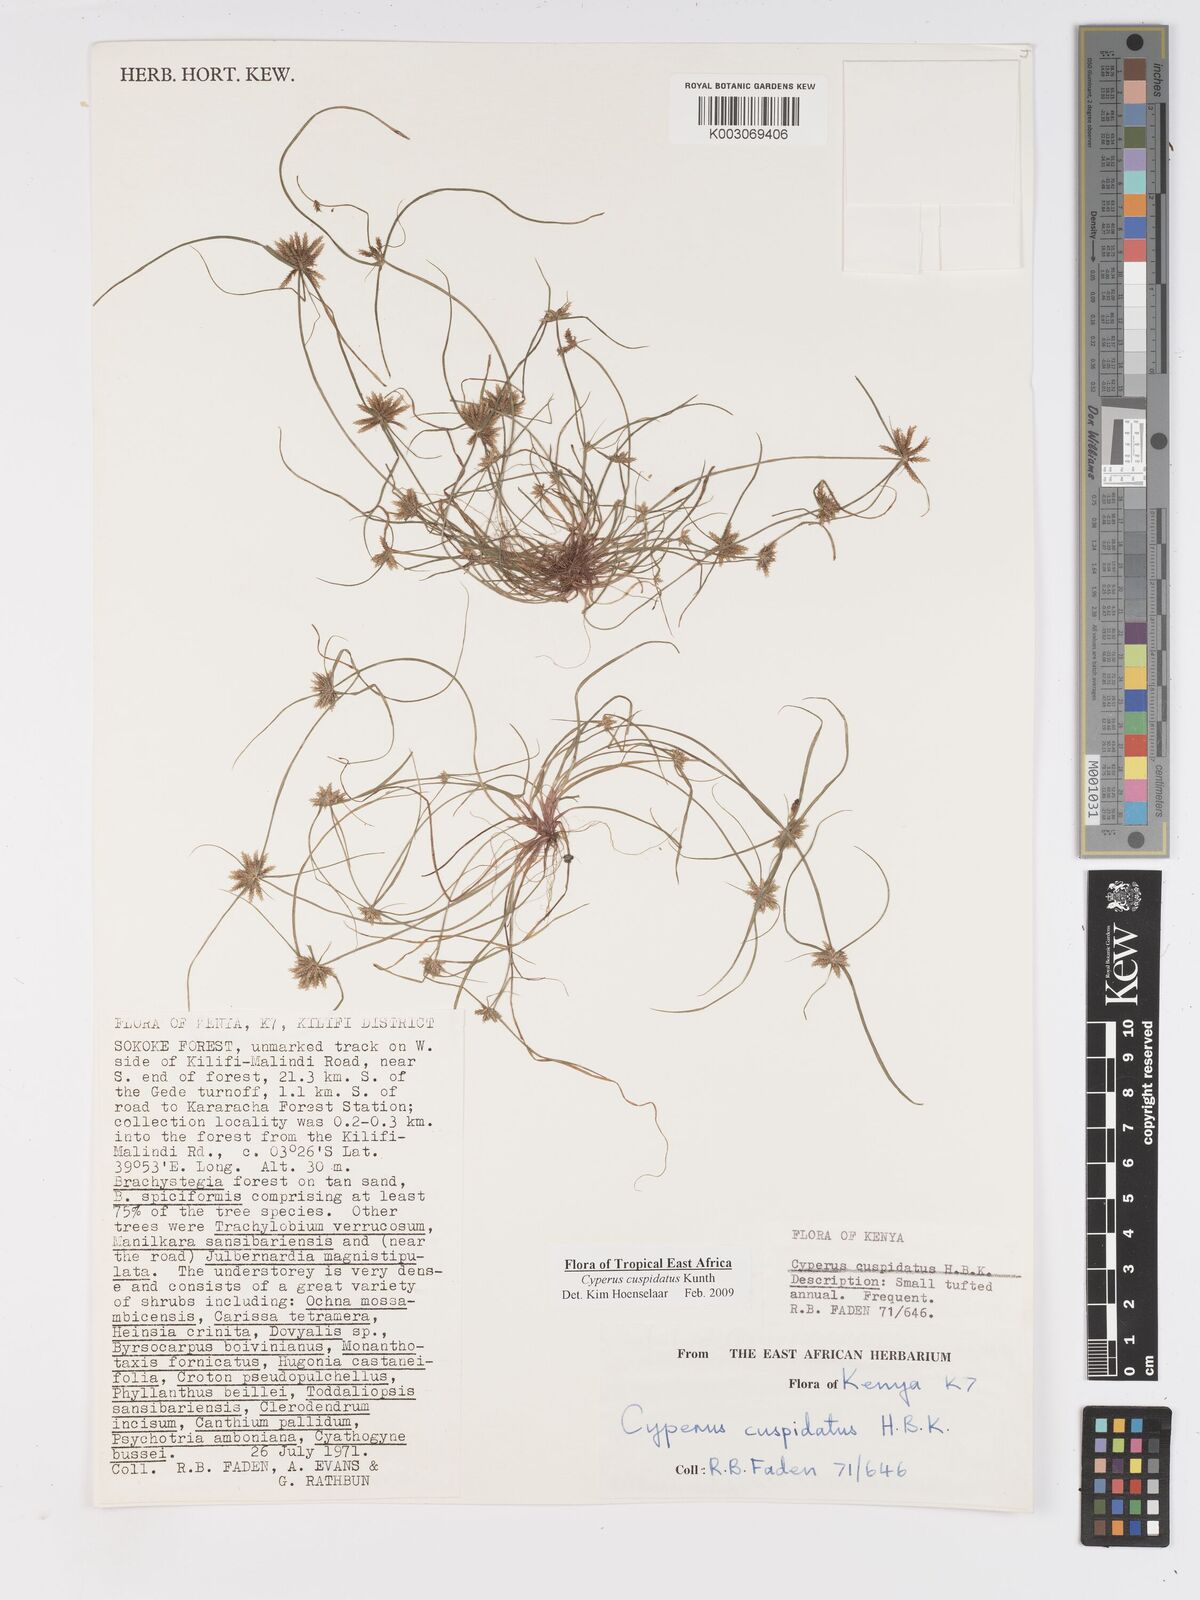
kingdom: Plantae
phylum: Tracheophyta
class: Liliopsida
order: Poales
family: Cyperaceae
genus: Cyperus
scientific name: Cyperus cuspidatus
